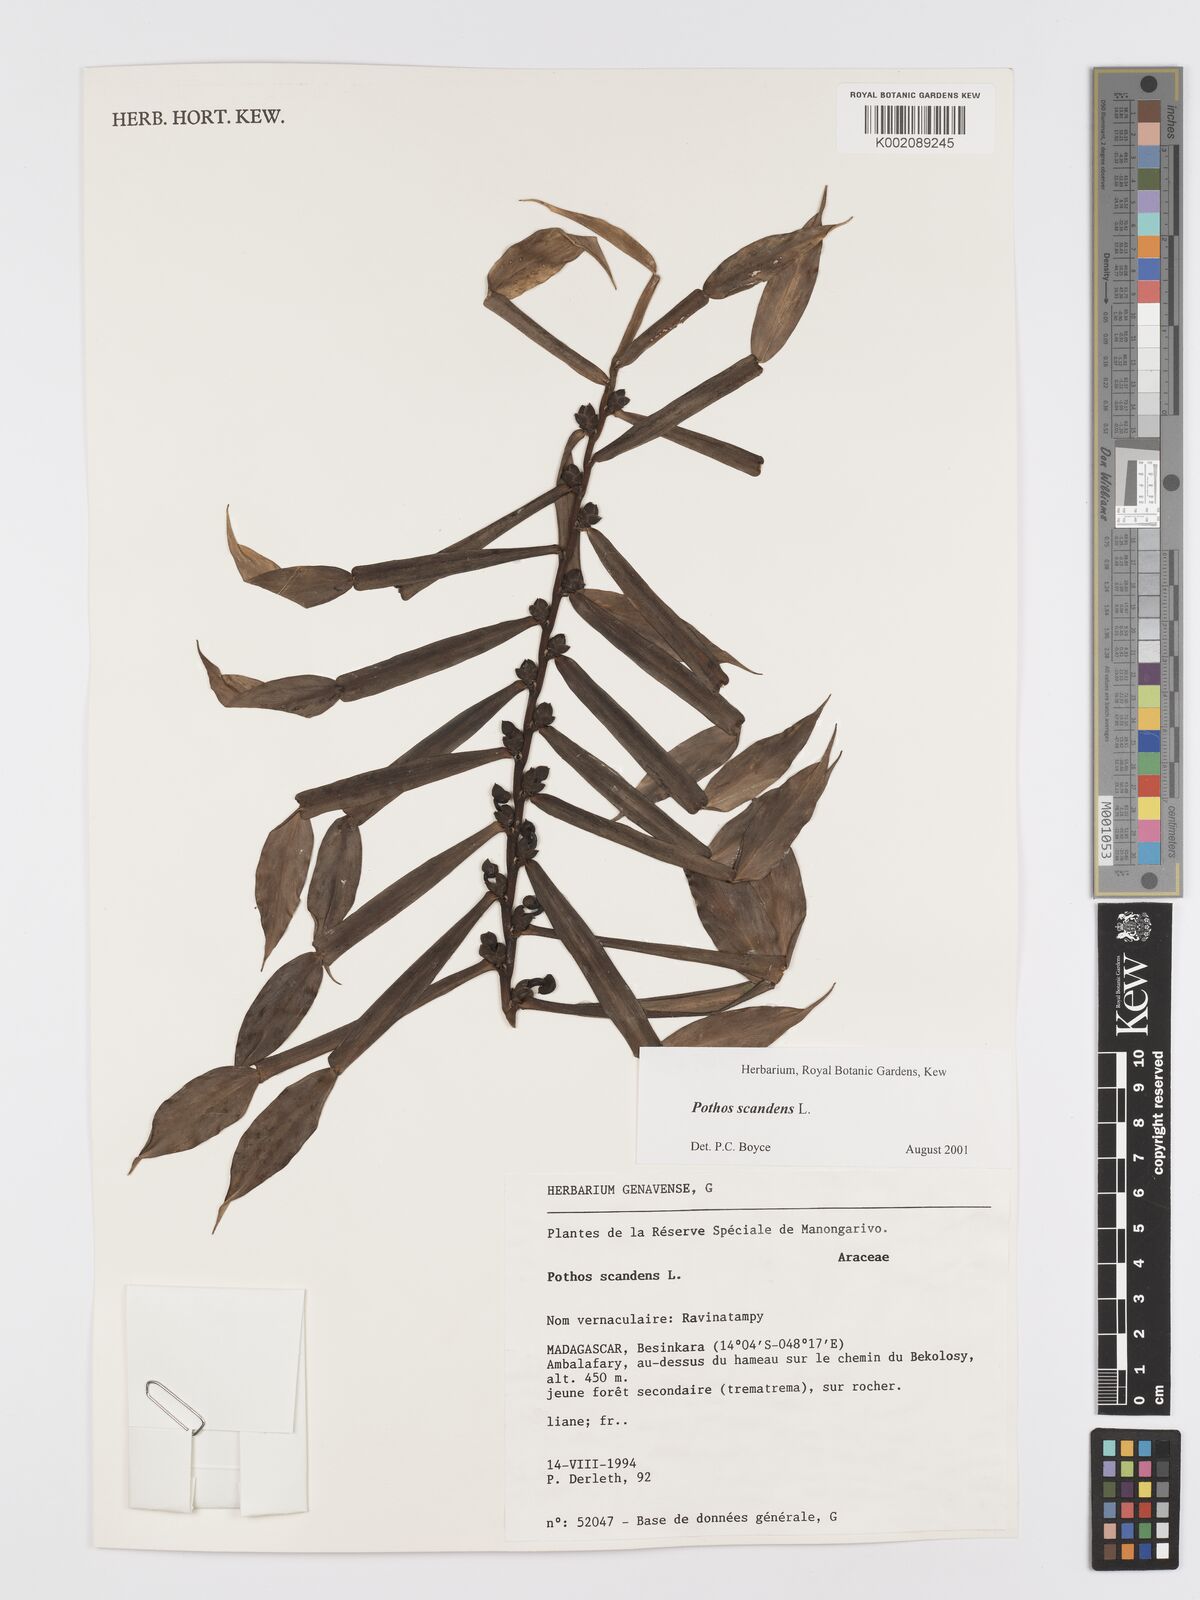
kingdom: Plantae
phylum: Tracheophyta
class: Liliopsida
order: Alismatales
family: Araceae
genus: Pothos
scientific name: Pothos scandens
